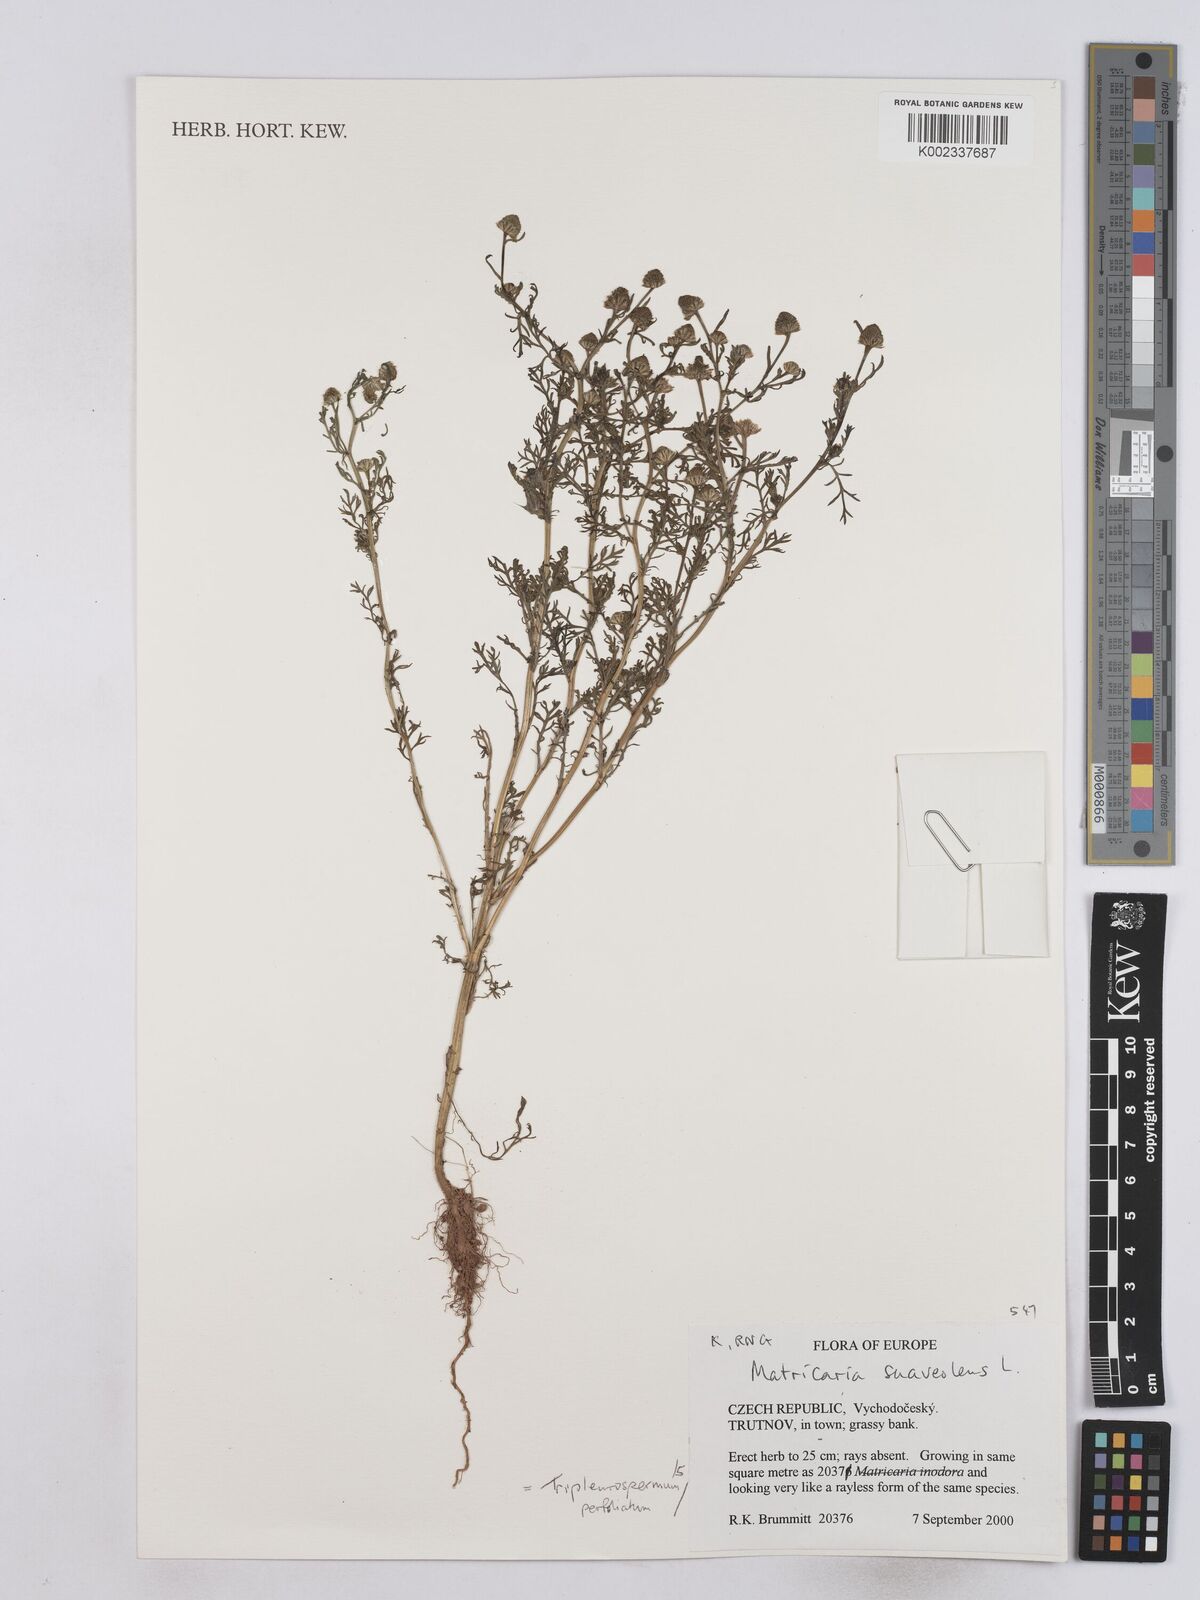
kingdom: Plantae
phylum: Tracheophyta
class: Magnoliopsida
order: Asterales
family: Asteraceae
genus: Matricaria
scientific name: Matricaria discoidea
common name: Disc mayweed
